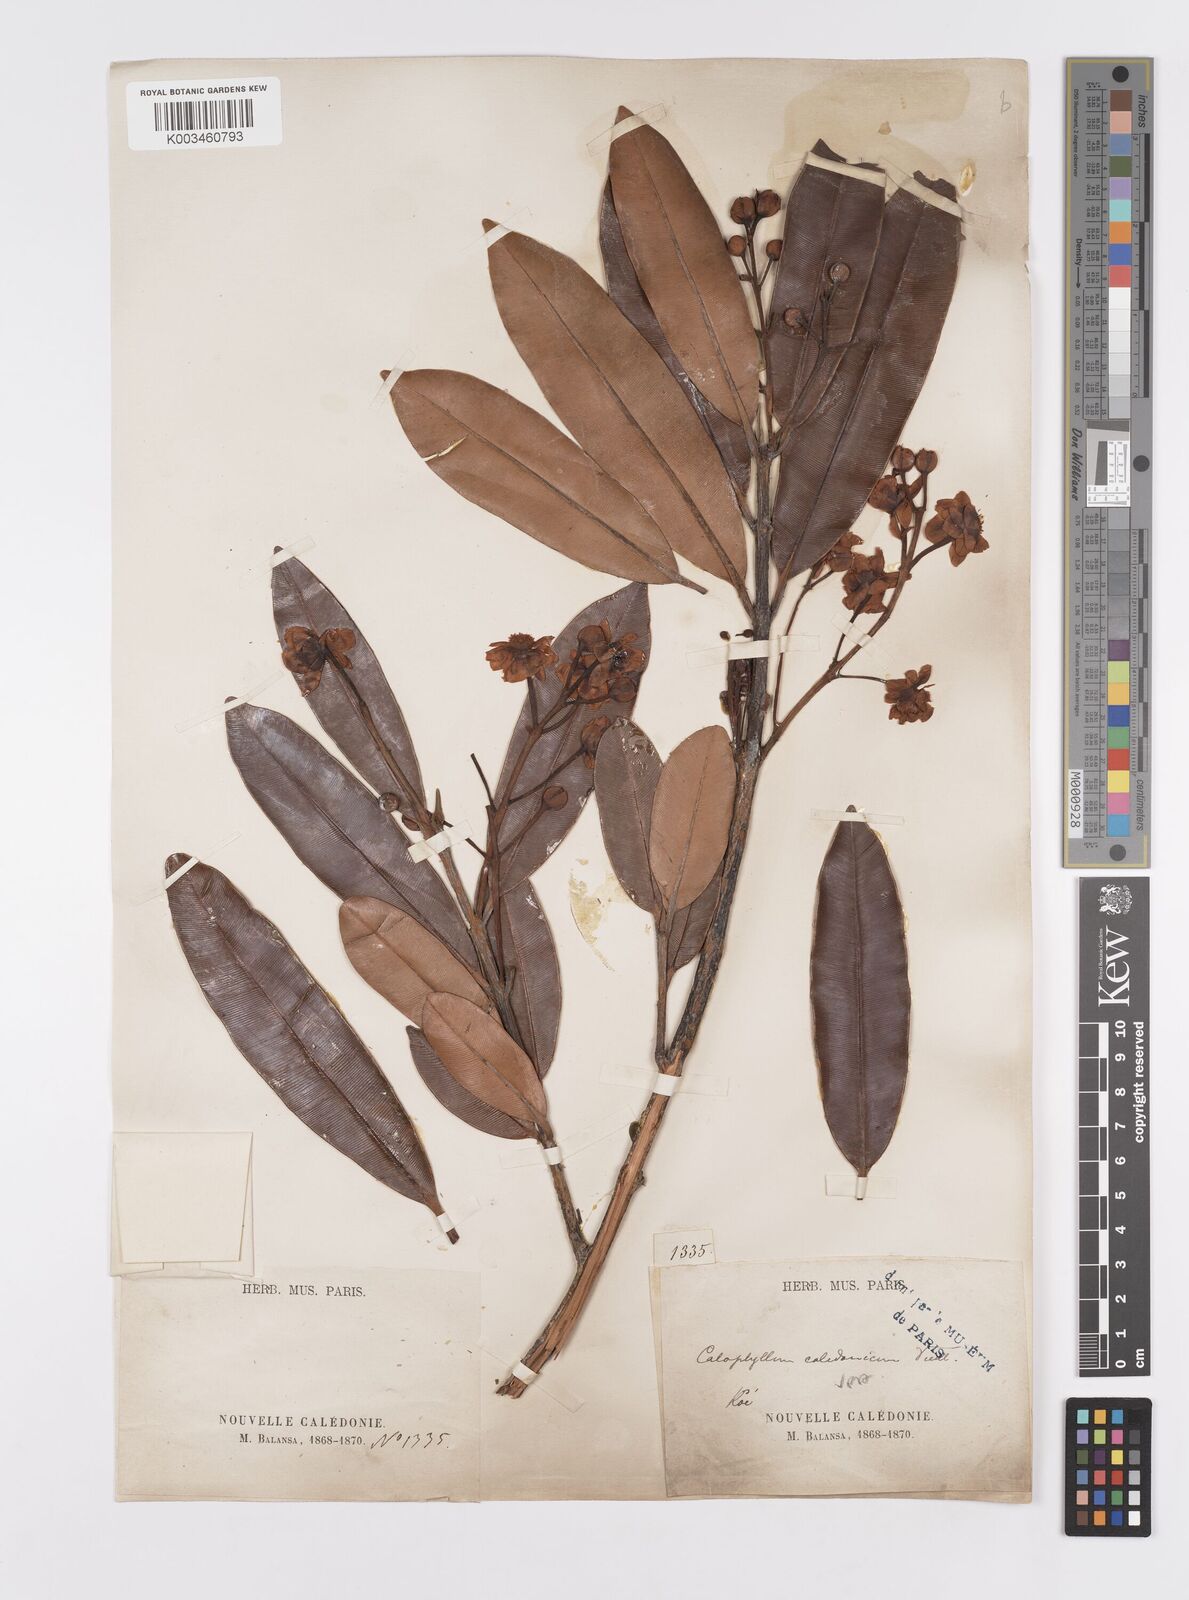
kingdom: Plantae
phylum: Tracheophyta
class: Magnoliopsida
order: Malpighiales
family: Calophyllaceae
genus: Calophyllum
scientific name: Calophyllum caledonicum
